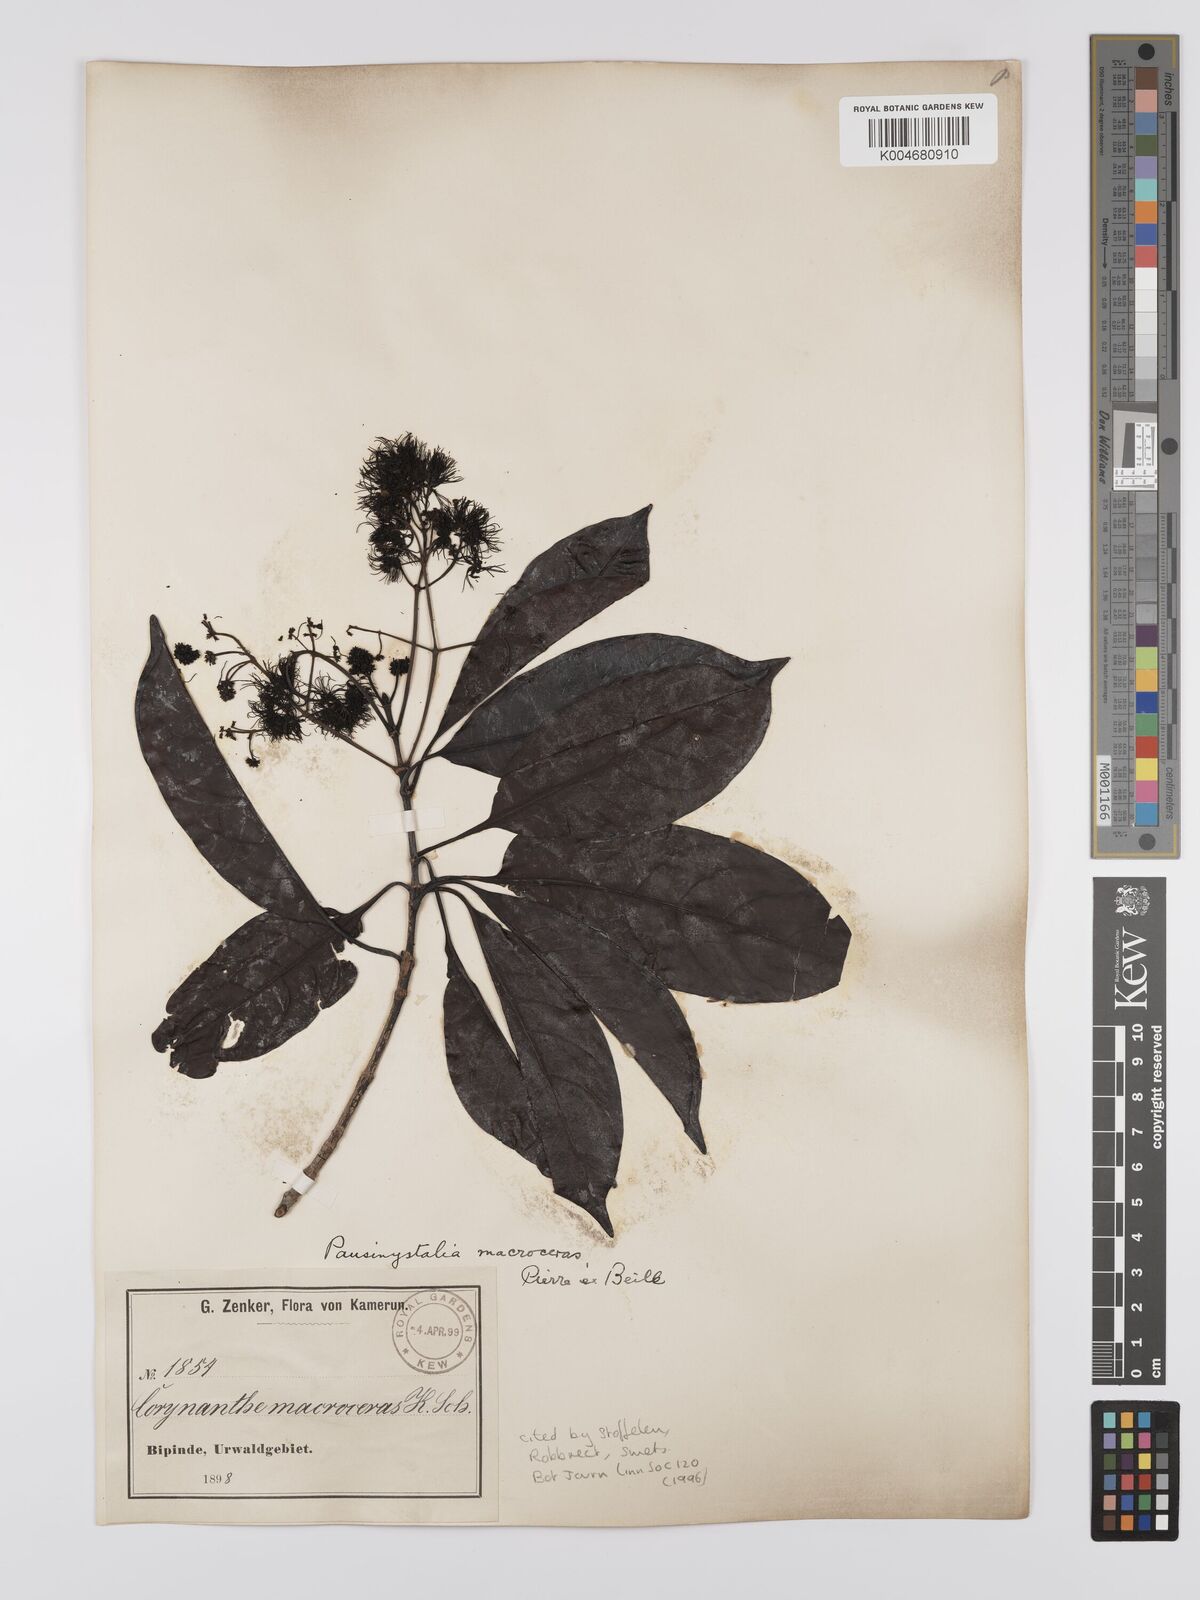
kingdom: Plantae
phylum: Tracheophyta
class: Magnoliopsida
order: Gentianales
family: Rubiaceae
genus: Corynanthe
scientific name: Corynanthe macroceras
